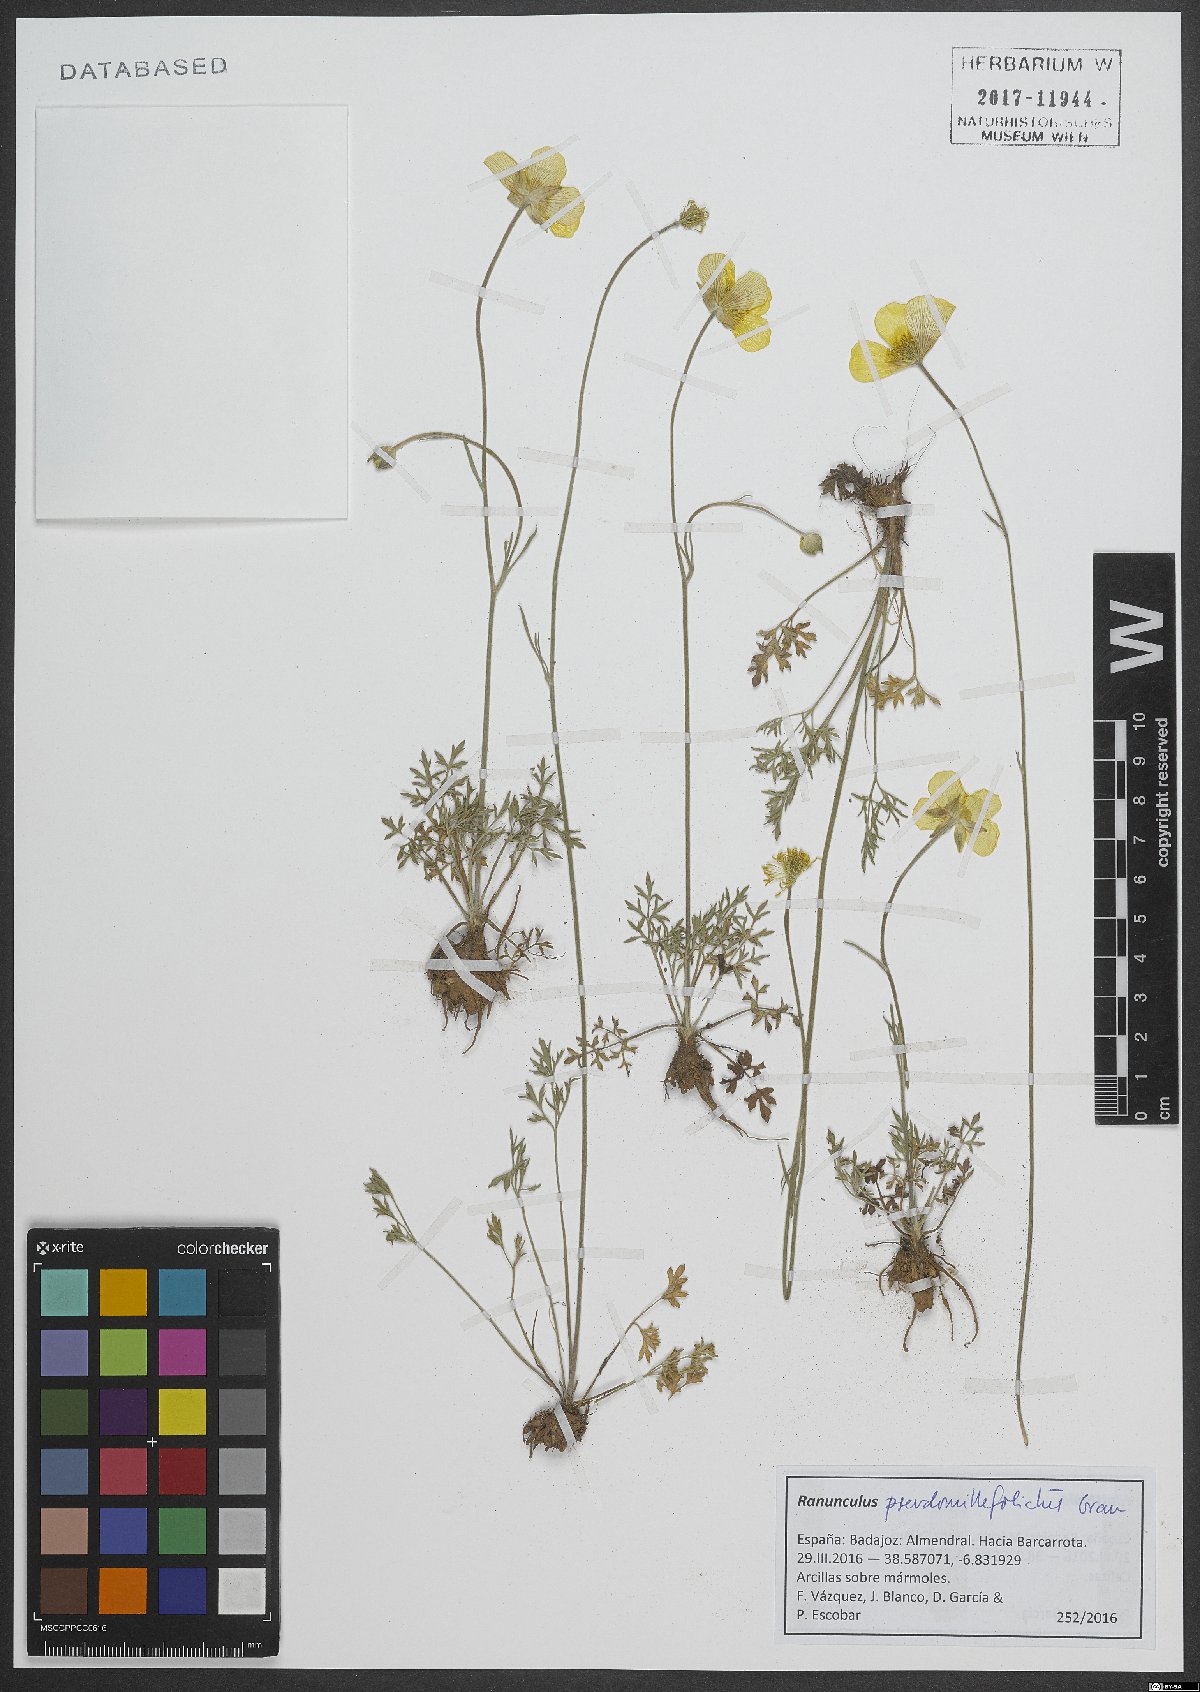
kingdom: Plantae
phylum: Tracheophyta
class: Magnoliopsida
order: Ranunculales
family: Ranunculaceae
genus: Ranunculus
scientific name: Ranunculus pseudomillefoliatus
